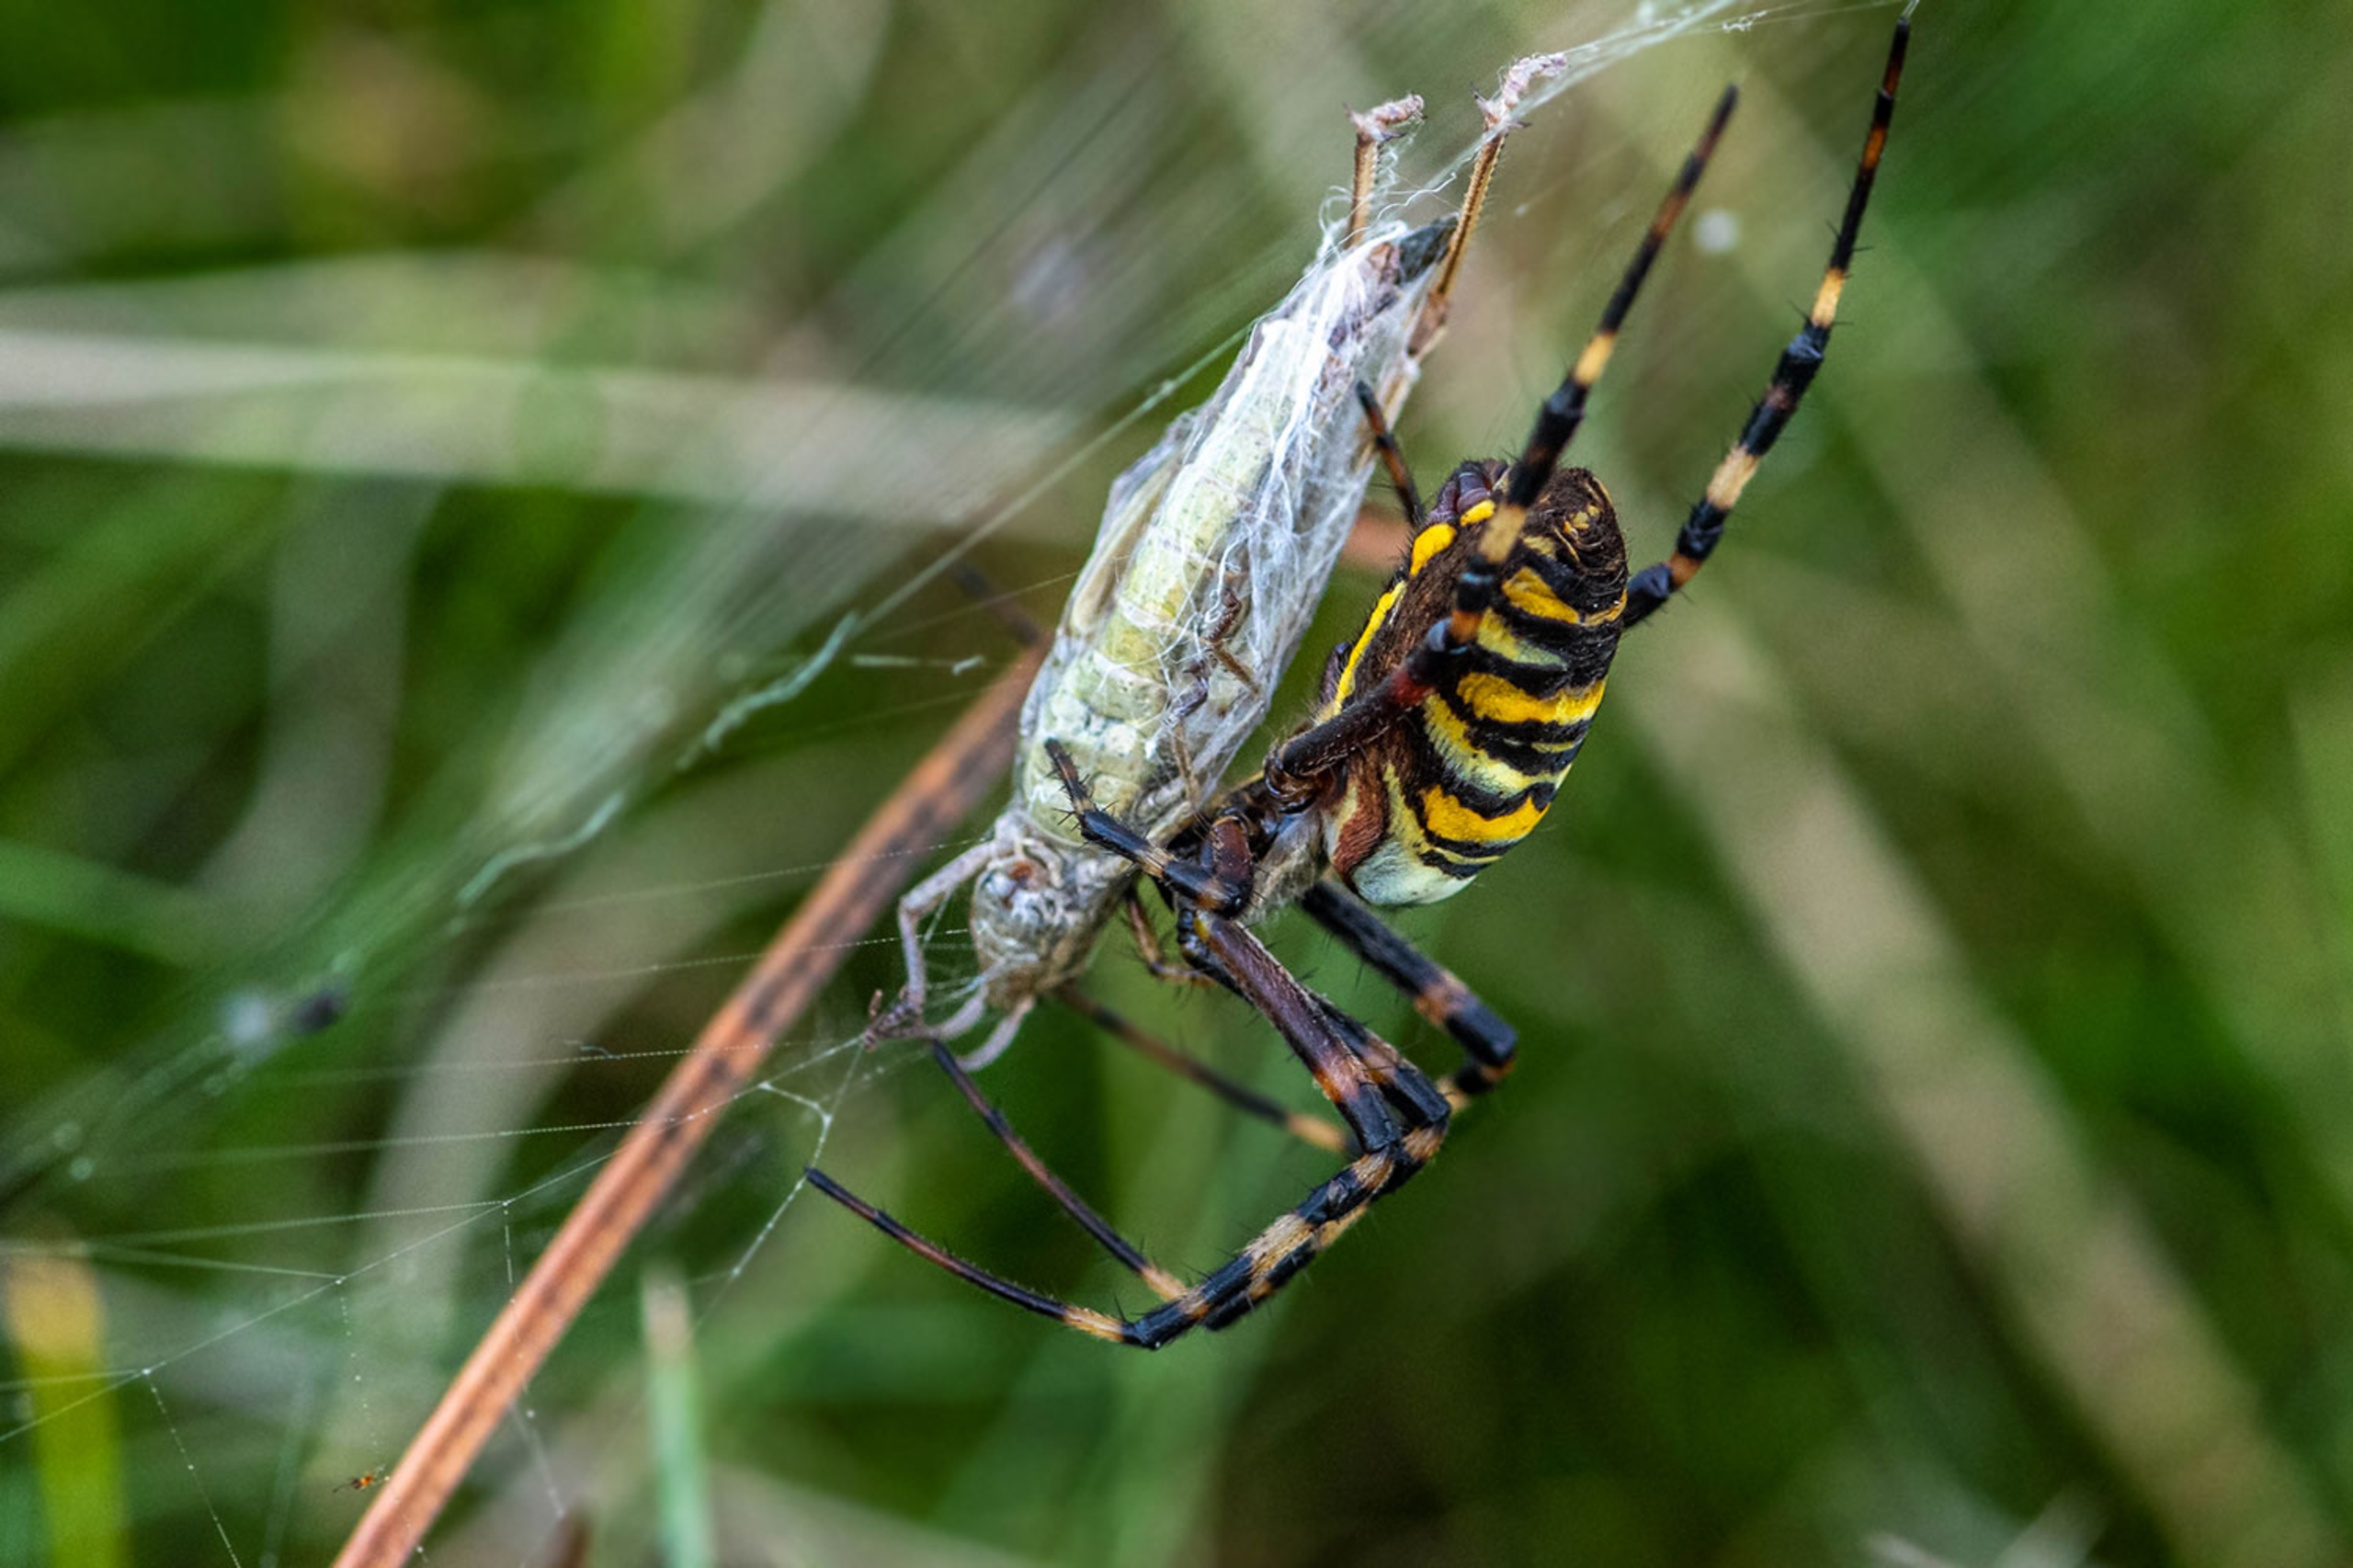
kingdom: Animalia
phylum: Arthropoda
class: Arachnida
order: Araneae
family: Araneidae
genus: Argiope
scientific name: Argiope bruennichi
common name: Hvepseedderkop
